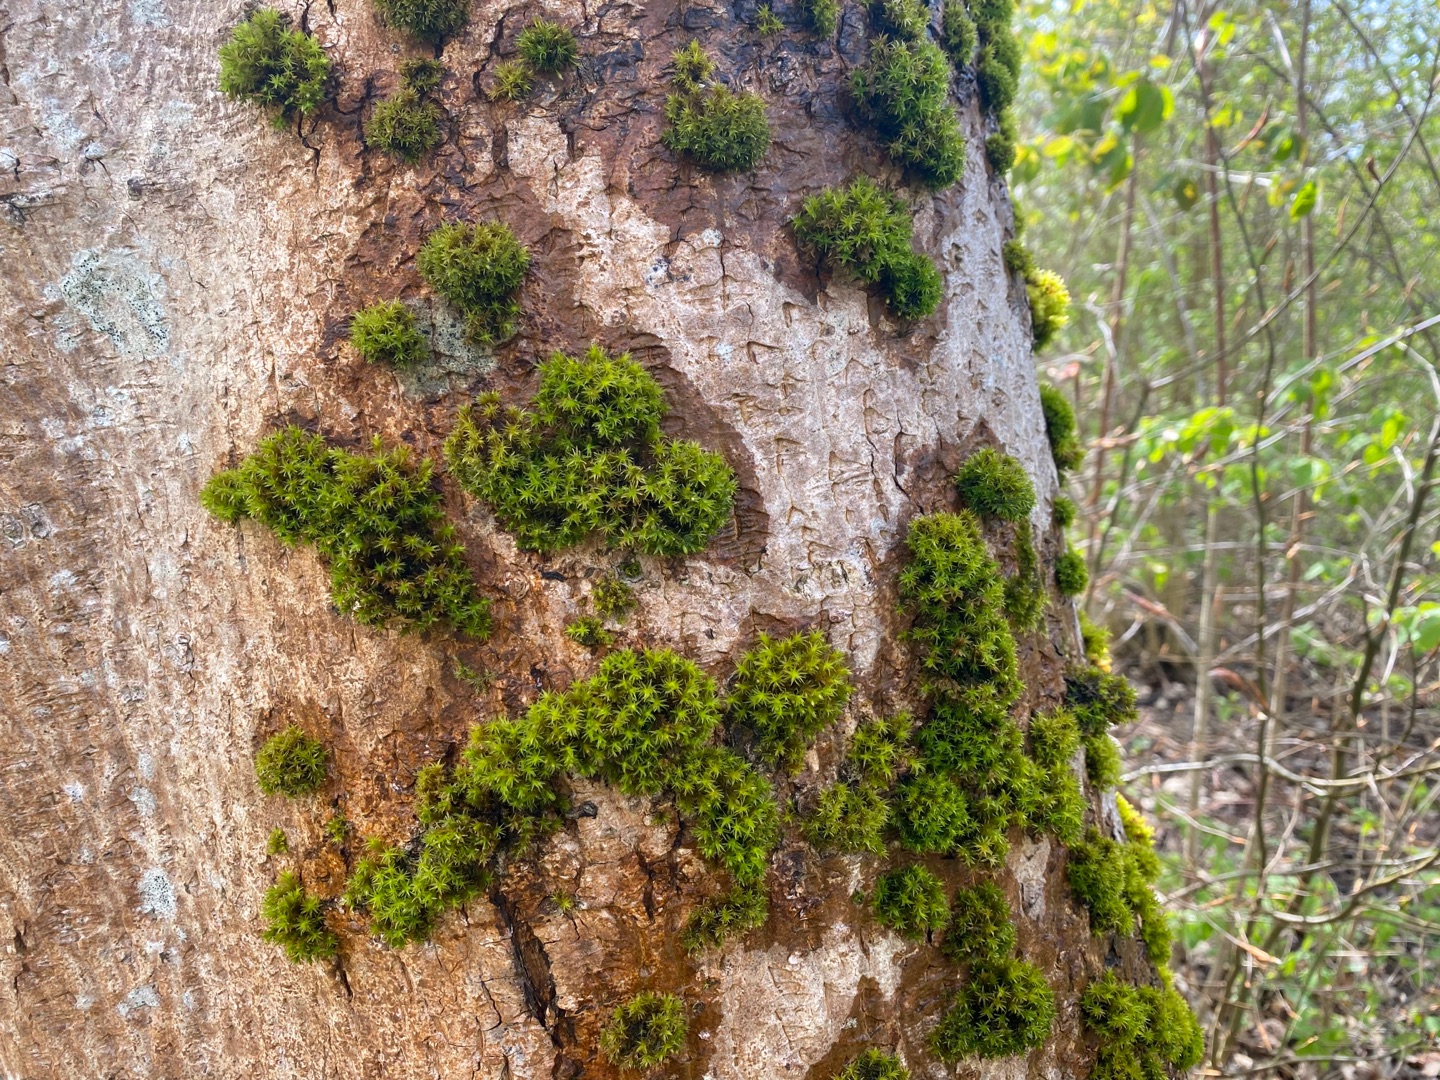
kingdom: Plantae
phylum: Bryophyta
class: Bryopsida
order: Orthotrichales
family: Orthotrichaceae
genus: Lewinskya
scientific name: Lewinskya affinis
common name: Almindelig furehætte
